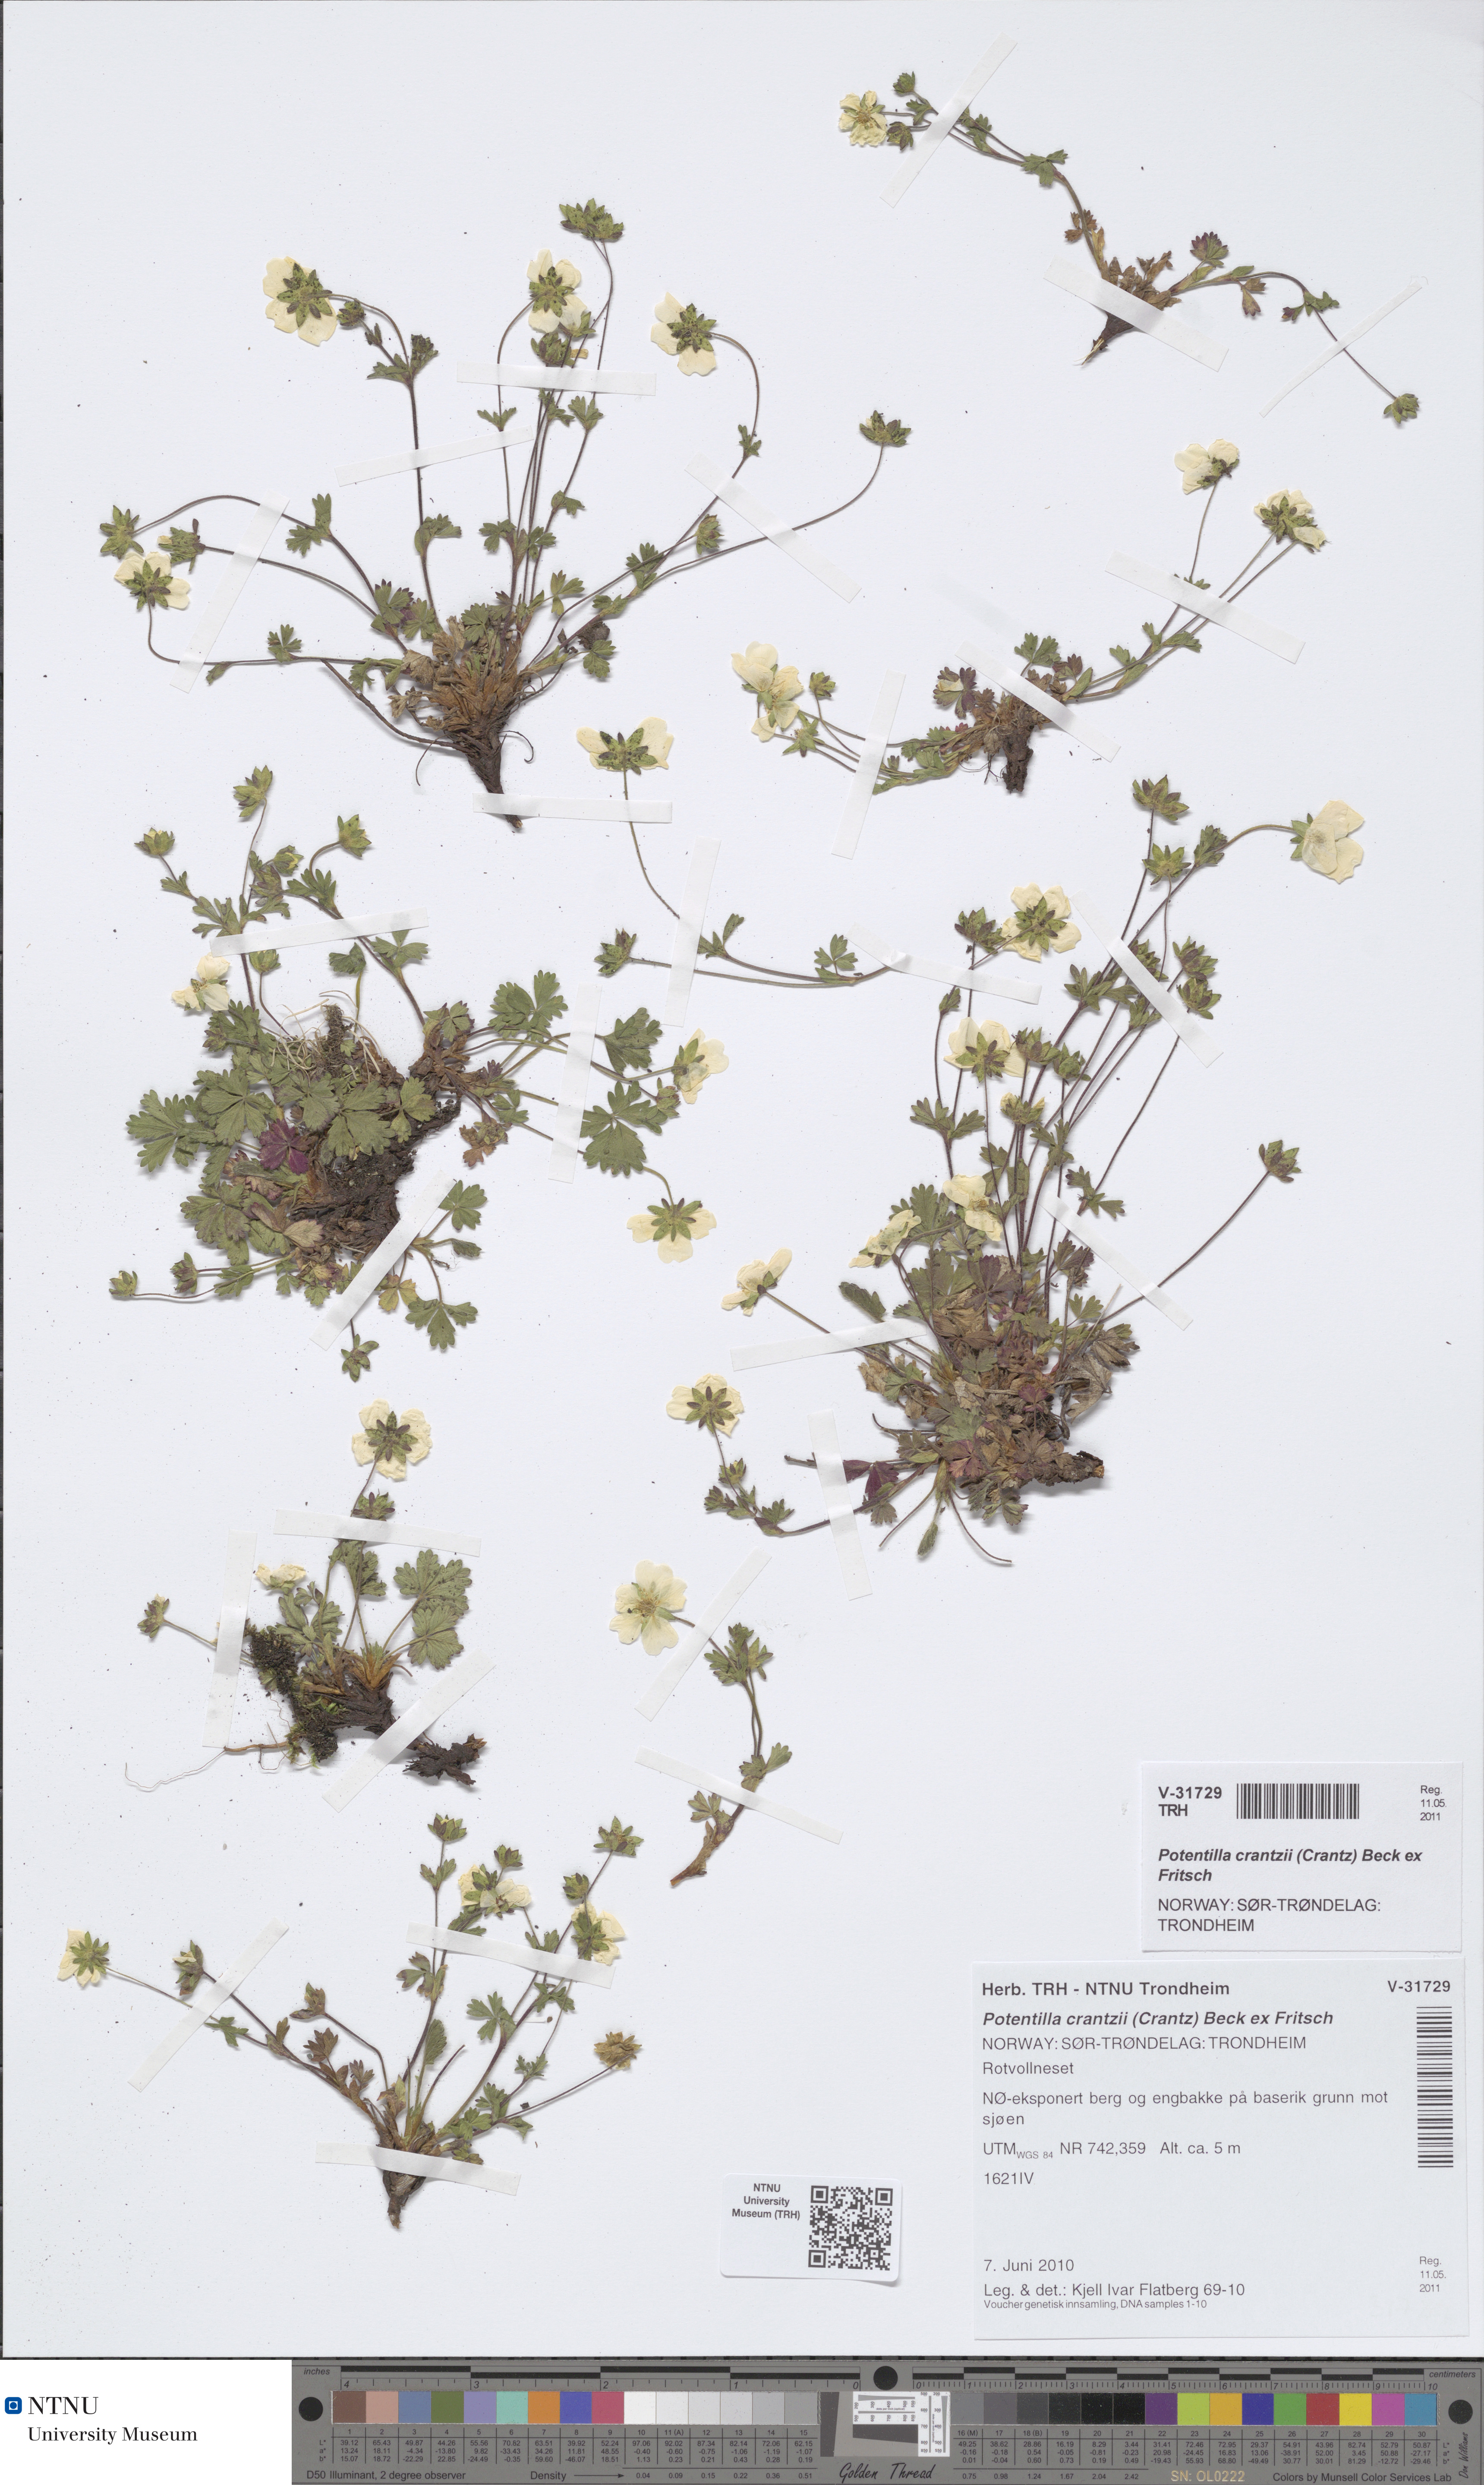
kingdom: Plantae
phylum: Tracheophyta
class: Magnoliopsida
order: Rosales
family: Rosaceae
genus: Potentilla
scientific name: Potentilla crantzii
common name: Alpine cinquefoil
